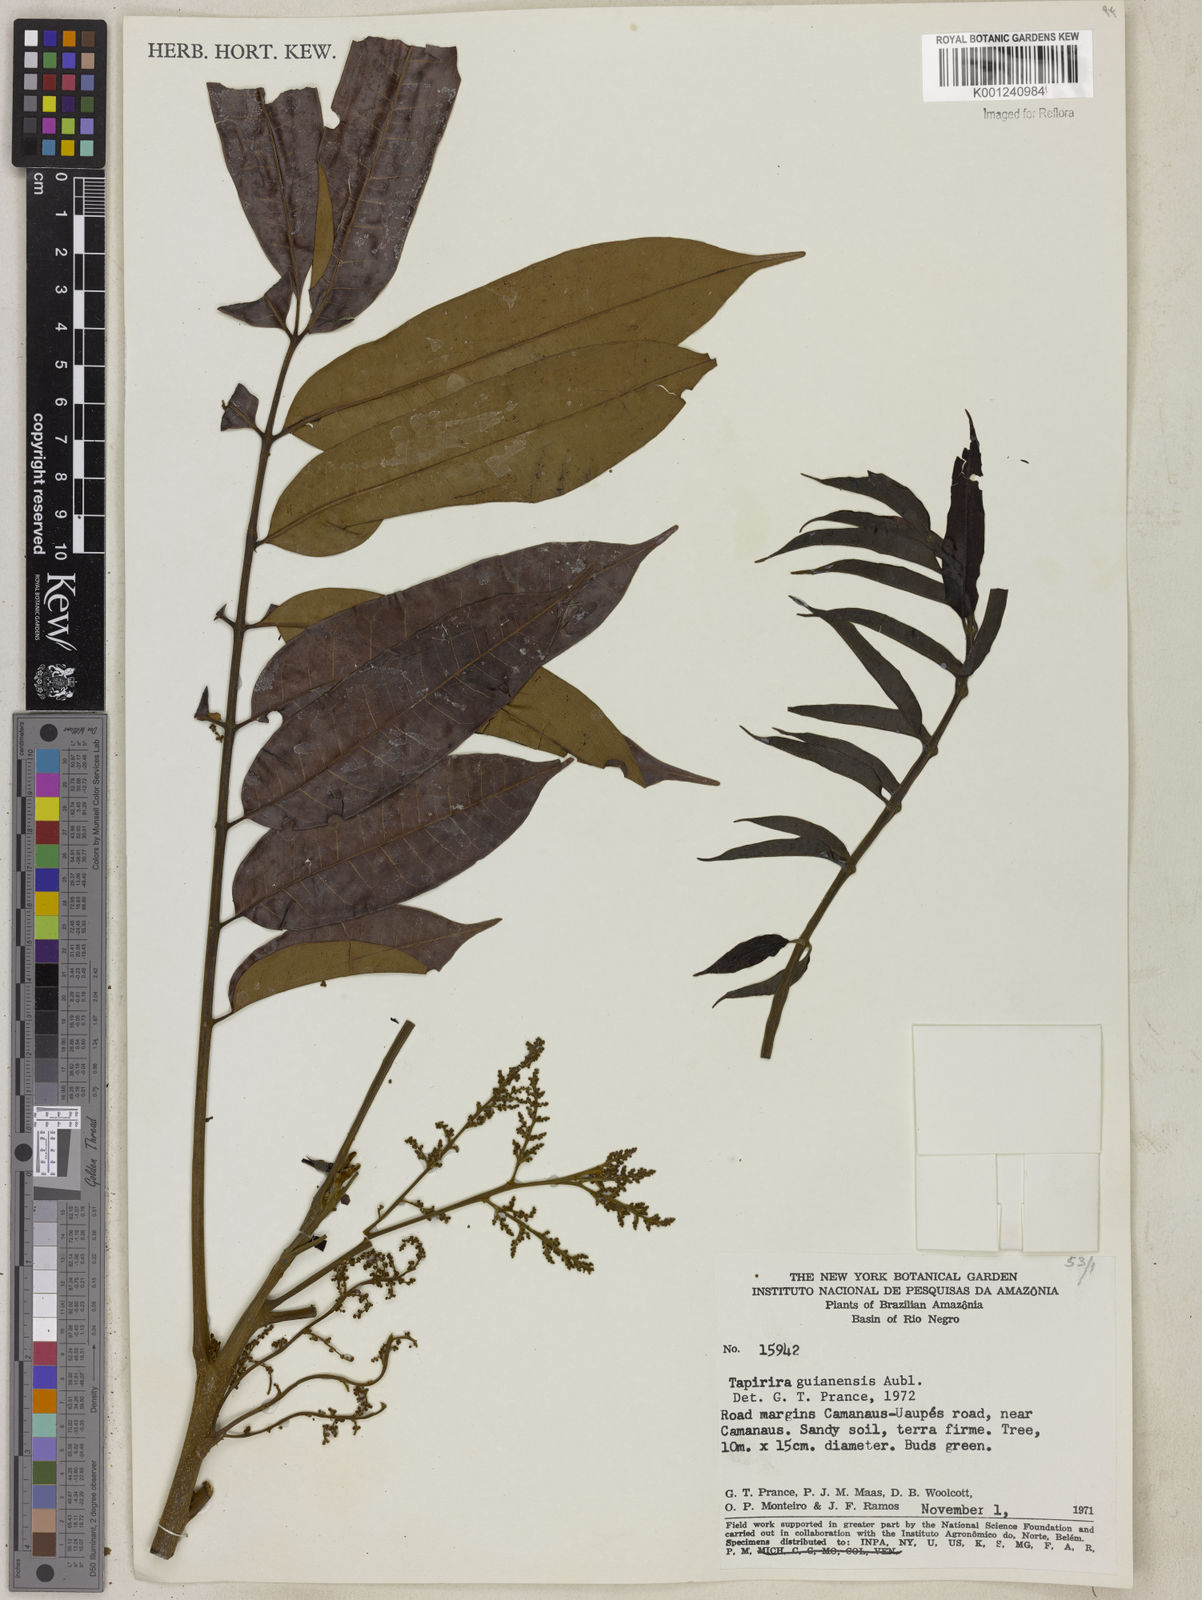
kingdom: Plantae
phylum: Tracheophyta
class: Magnoliopsida
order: Sapindales
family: Anacardiaceae
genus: Tapirira
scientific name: Tapirira guianensis
